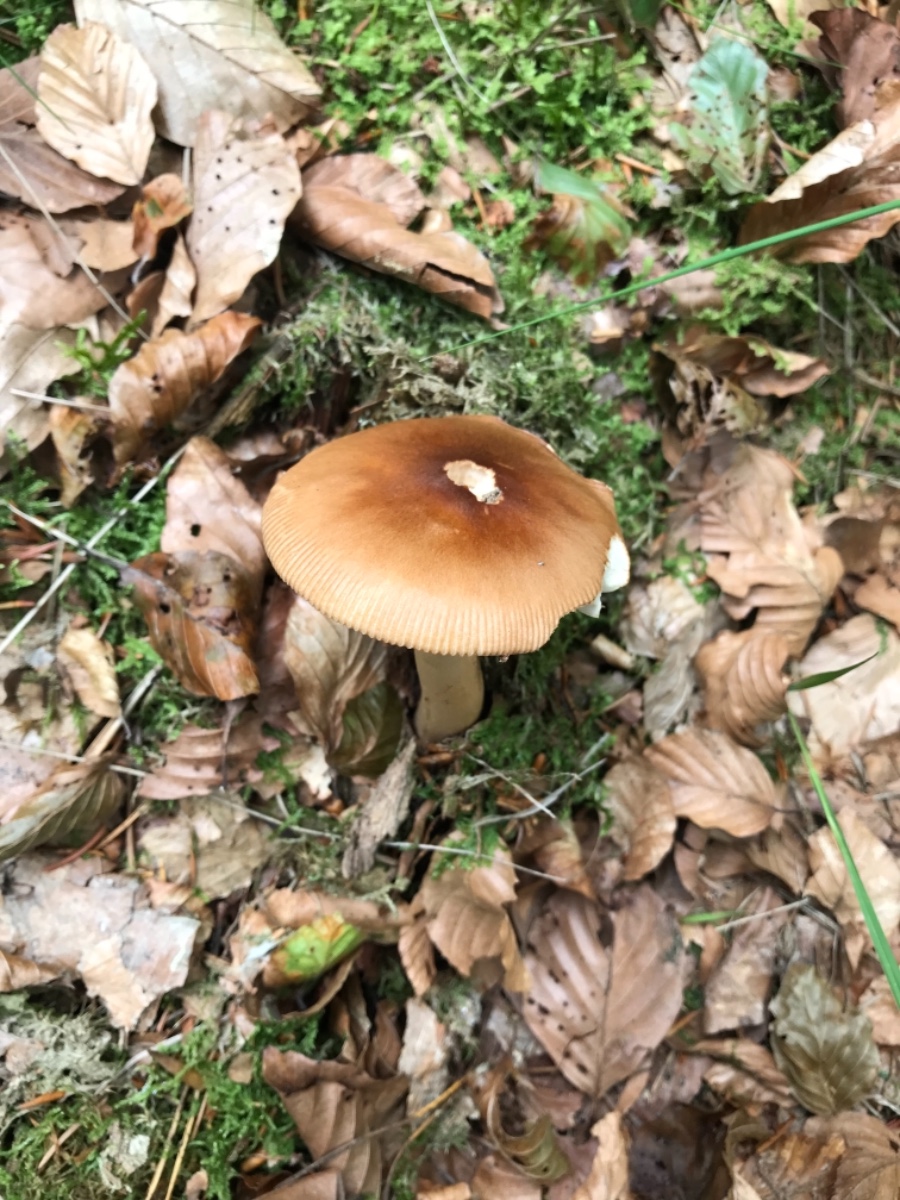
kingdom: Fungi
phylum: Basidiomycota
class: Agaricomycetes
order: Agaricales
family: Amanitaceae
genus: Amanita
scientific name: Amanita fulva
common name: brun kam-fluesvamp
